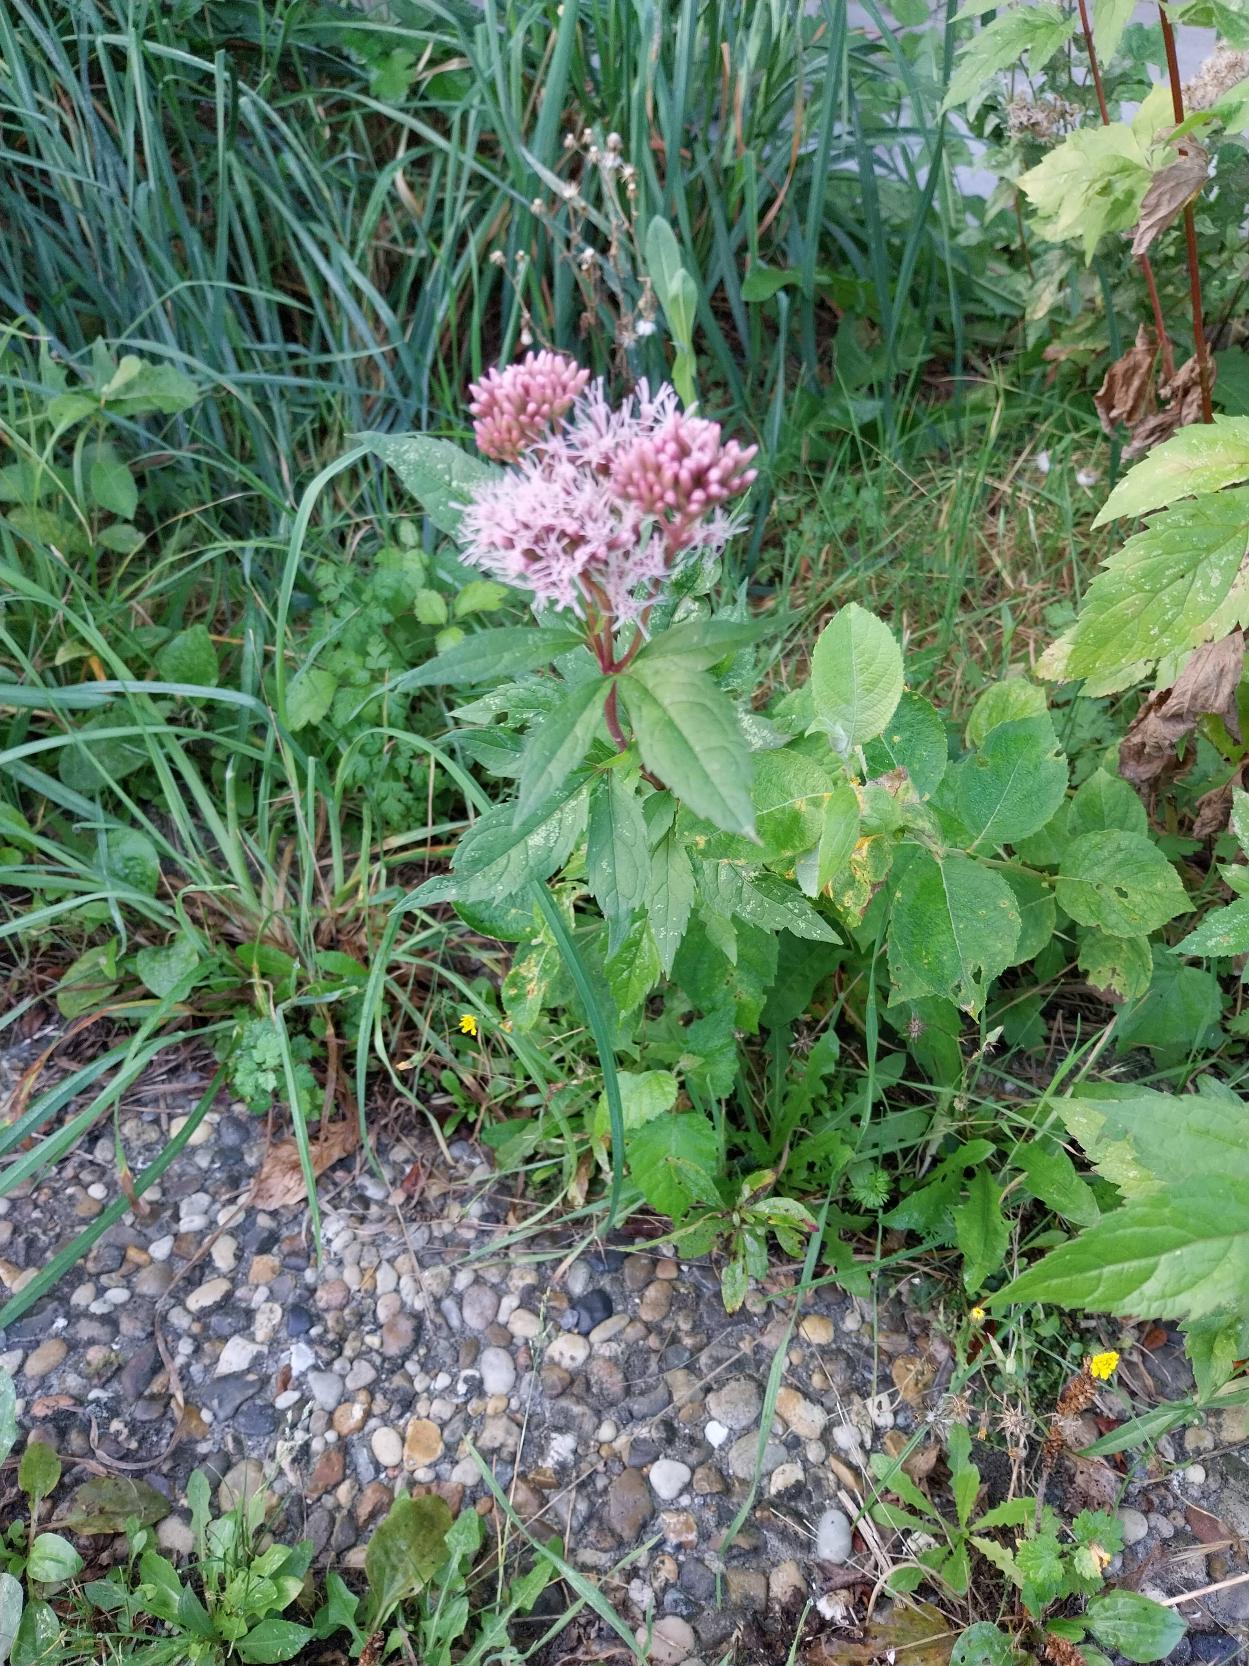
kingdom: Plantae
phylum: Tracheophyta
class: Magnoliopsida
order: Asterales
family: Asteraceae
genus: Eupatorium
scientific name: Eupatorium cannabinum
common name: Hjortetrøst
